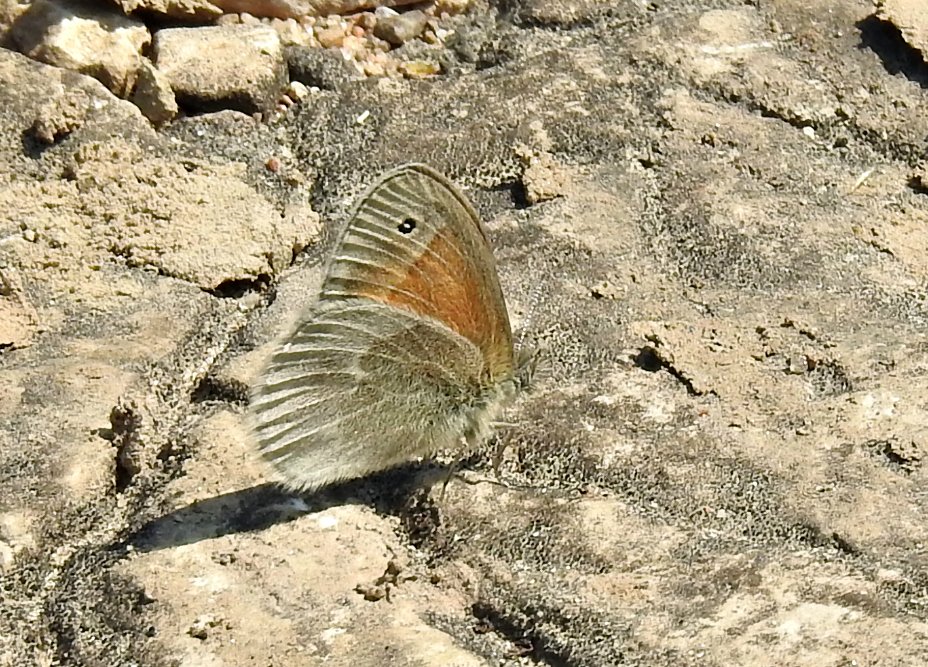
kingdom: Animalia
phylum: Arthropoda
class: Insecta
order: Lepidoptera
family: Nymphalidae
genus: Coenonympha
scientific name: Coenonympha tullia
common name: Large Heath
